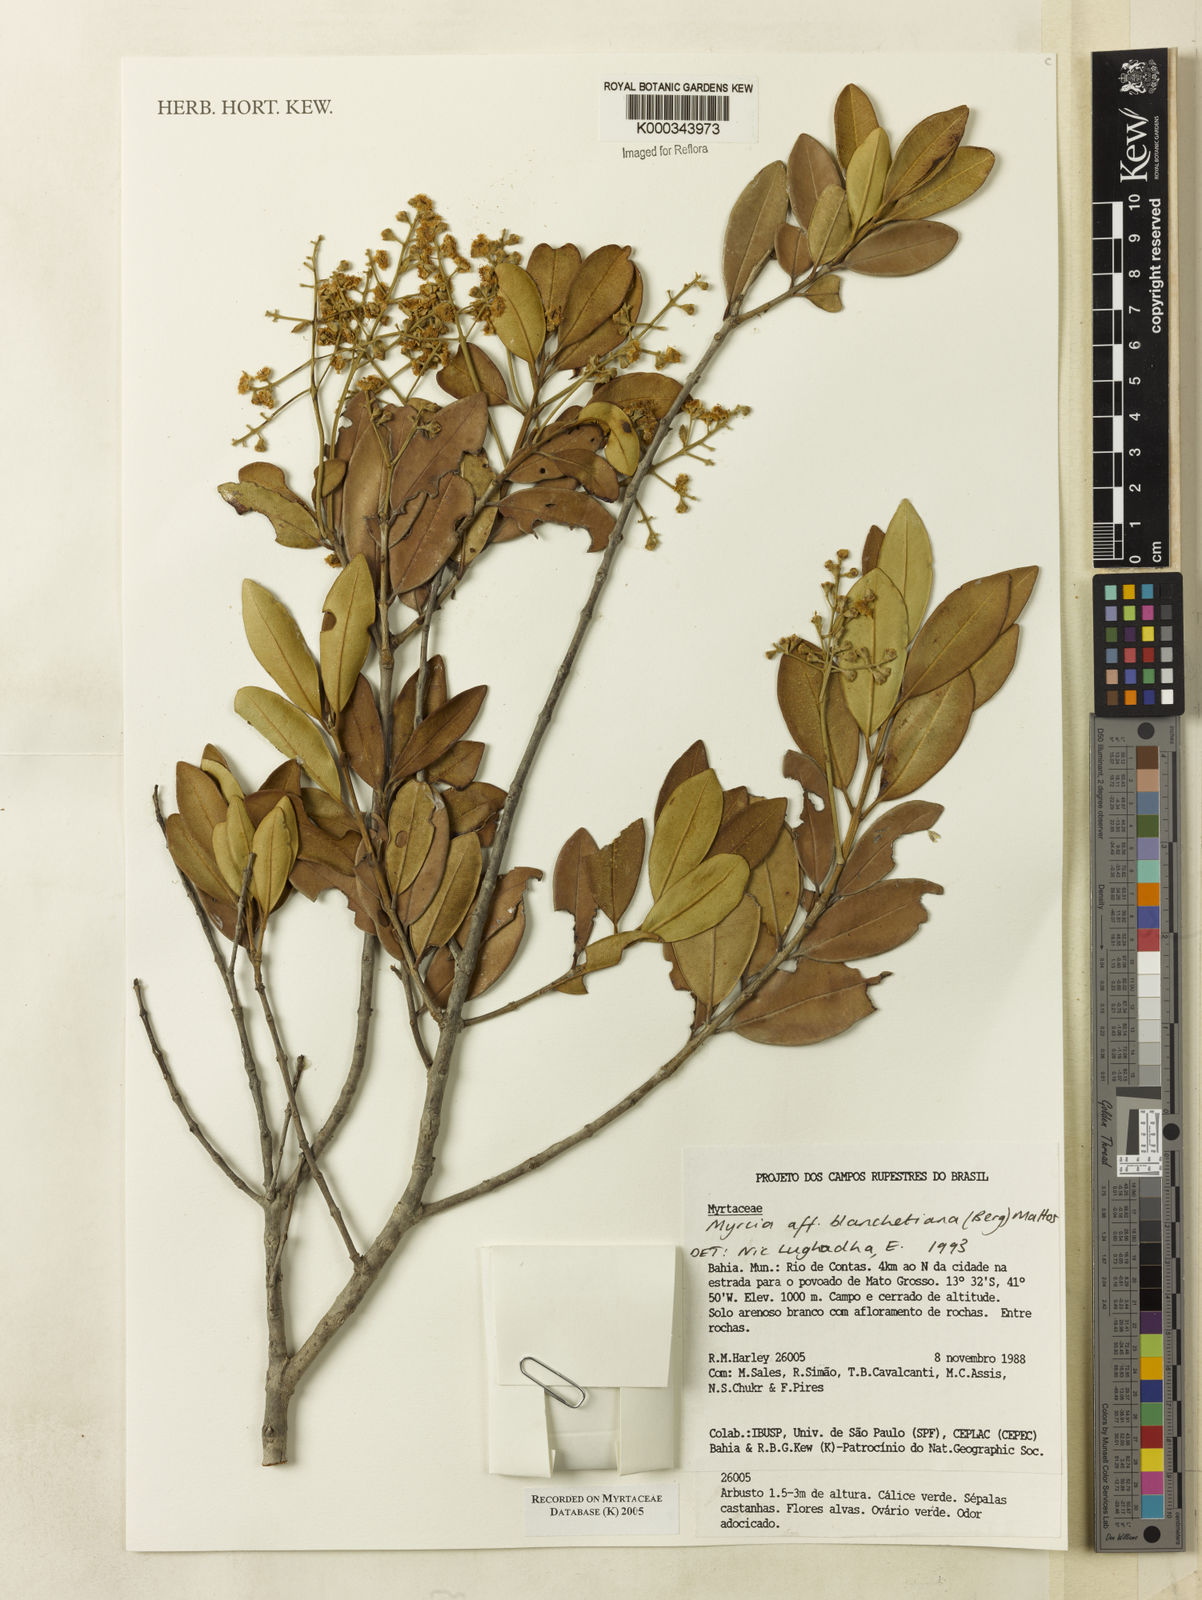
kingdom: Plantae
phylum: Tracheophyta
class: Magnoliopsida
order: Myrtales
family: Myrtaceae
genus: Myrcia
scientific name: Myrcia blanchetiana
